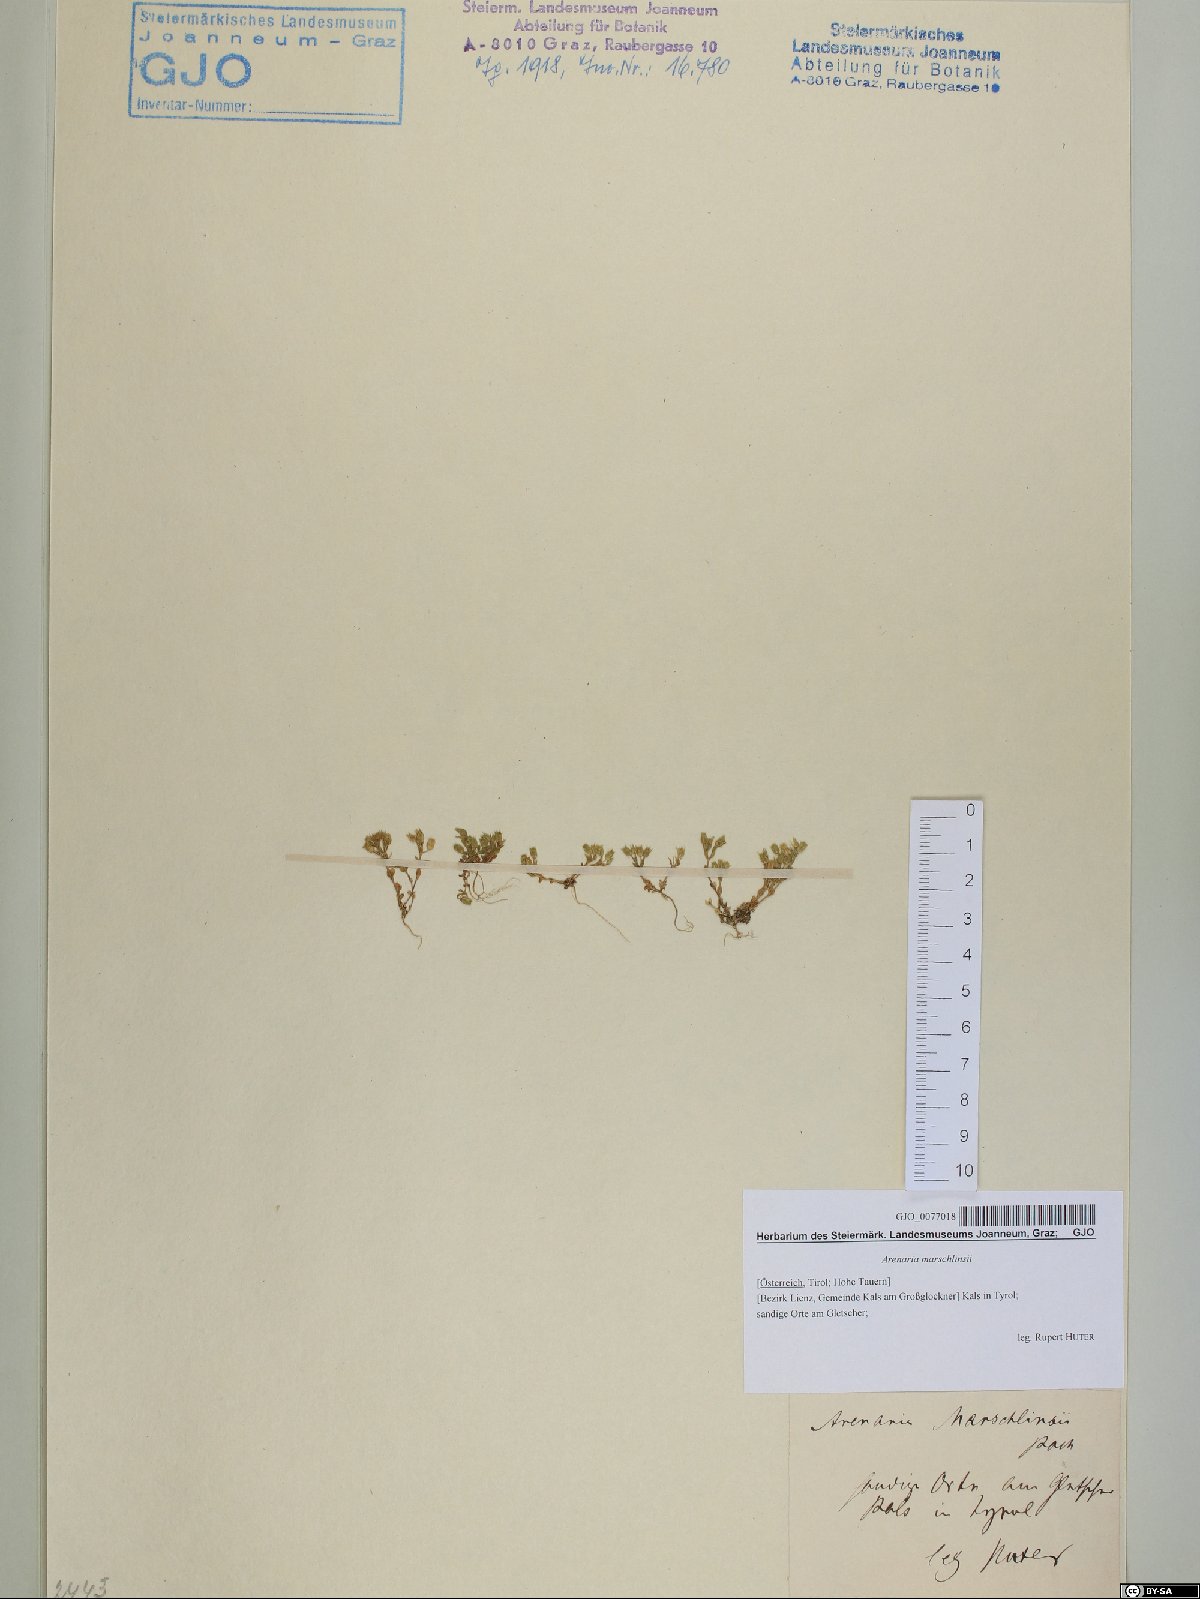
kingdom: Plantae
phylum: Tracheophyta
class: Magnoliopsida
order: Caryophyllales
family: Caryophyllaceae
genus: Arenaria
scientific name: Arenaria marschlinsii
